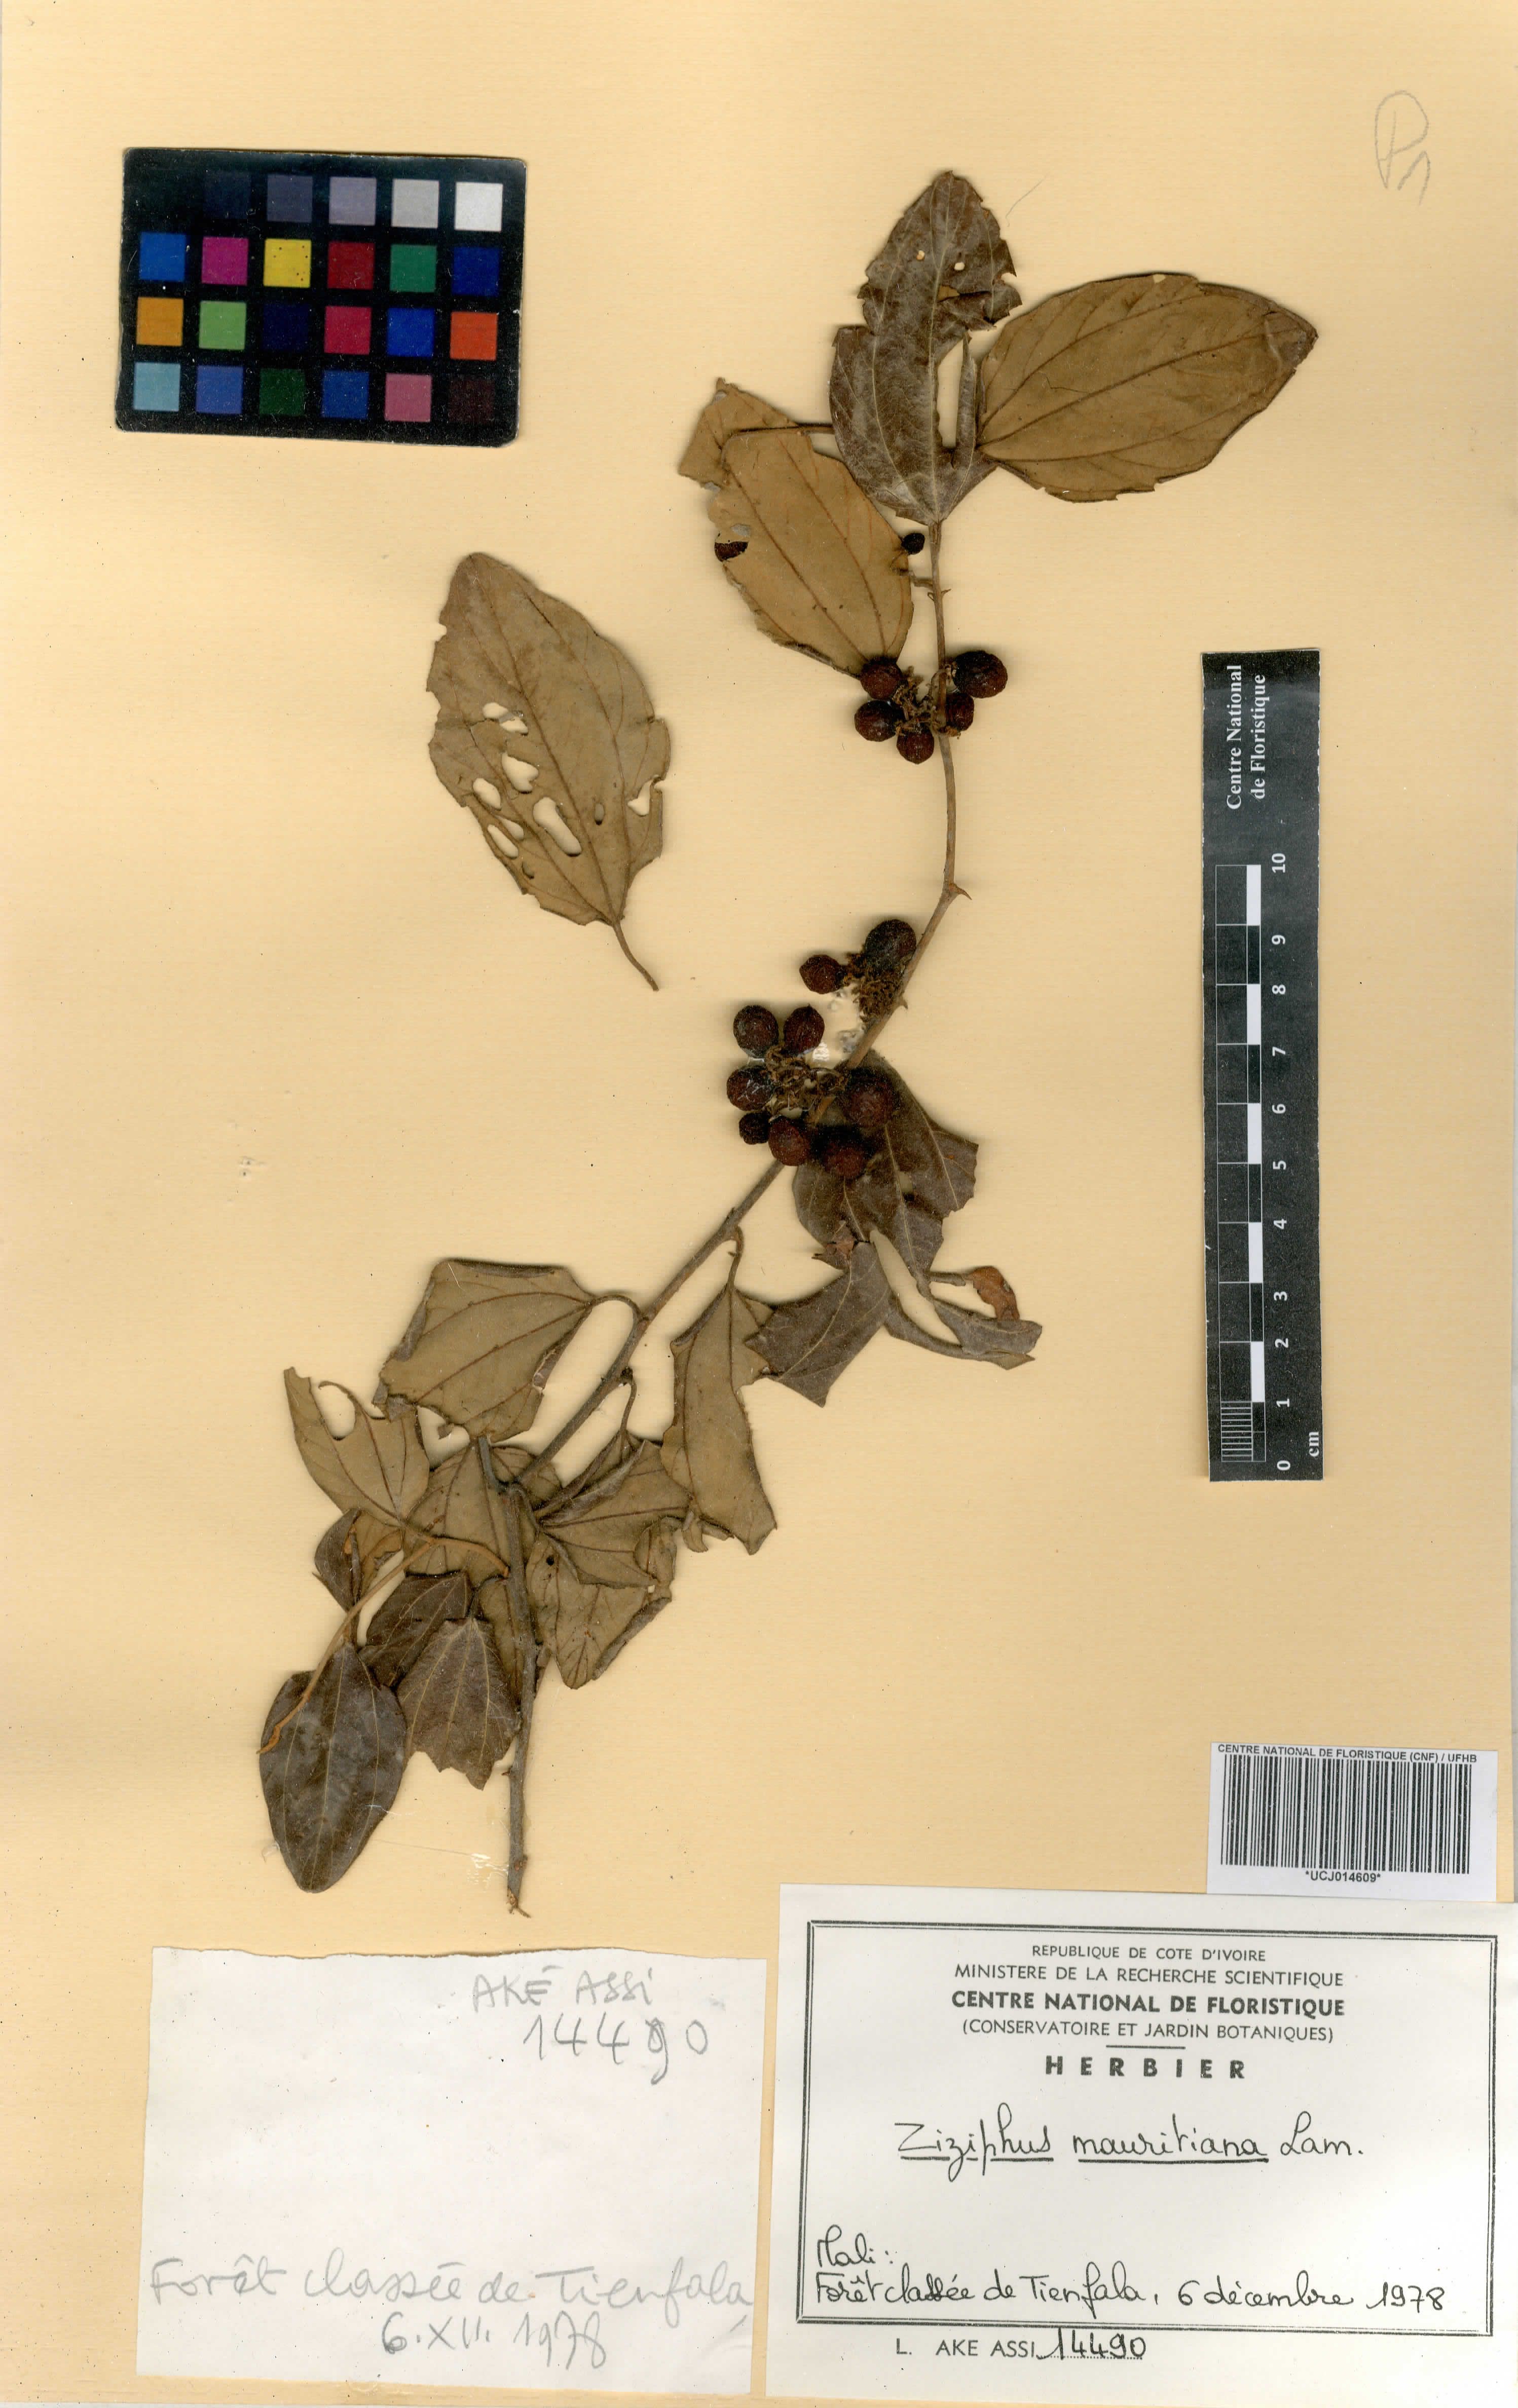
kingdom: Plantae
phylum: Tracheophyta
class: Magnoliopsida
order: Rosales
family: Rhamnaceae
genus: Ziziphus
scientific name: Ziziphus mauritiana
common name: Indian jujube
